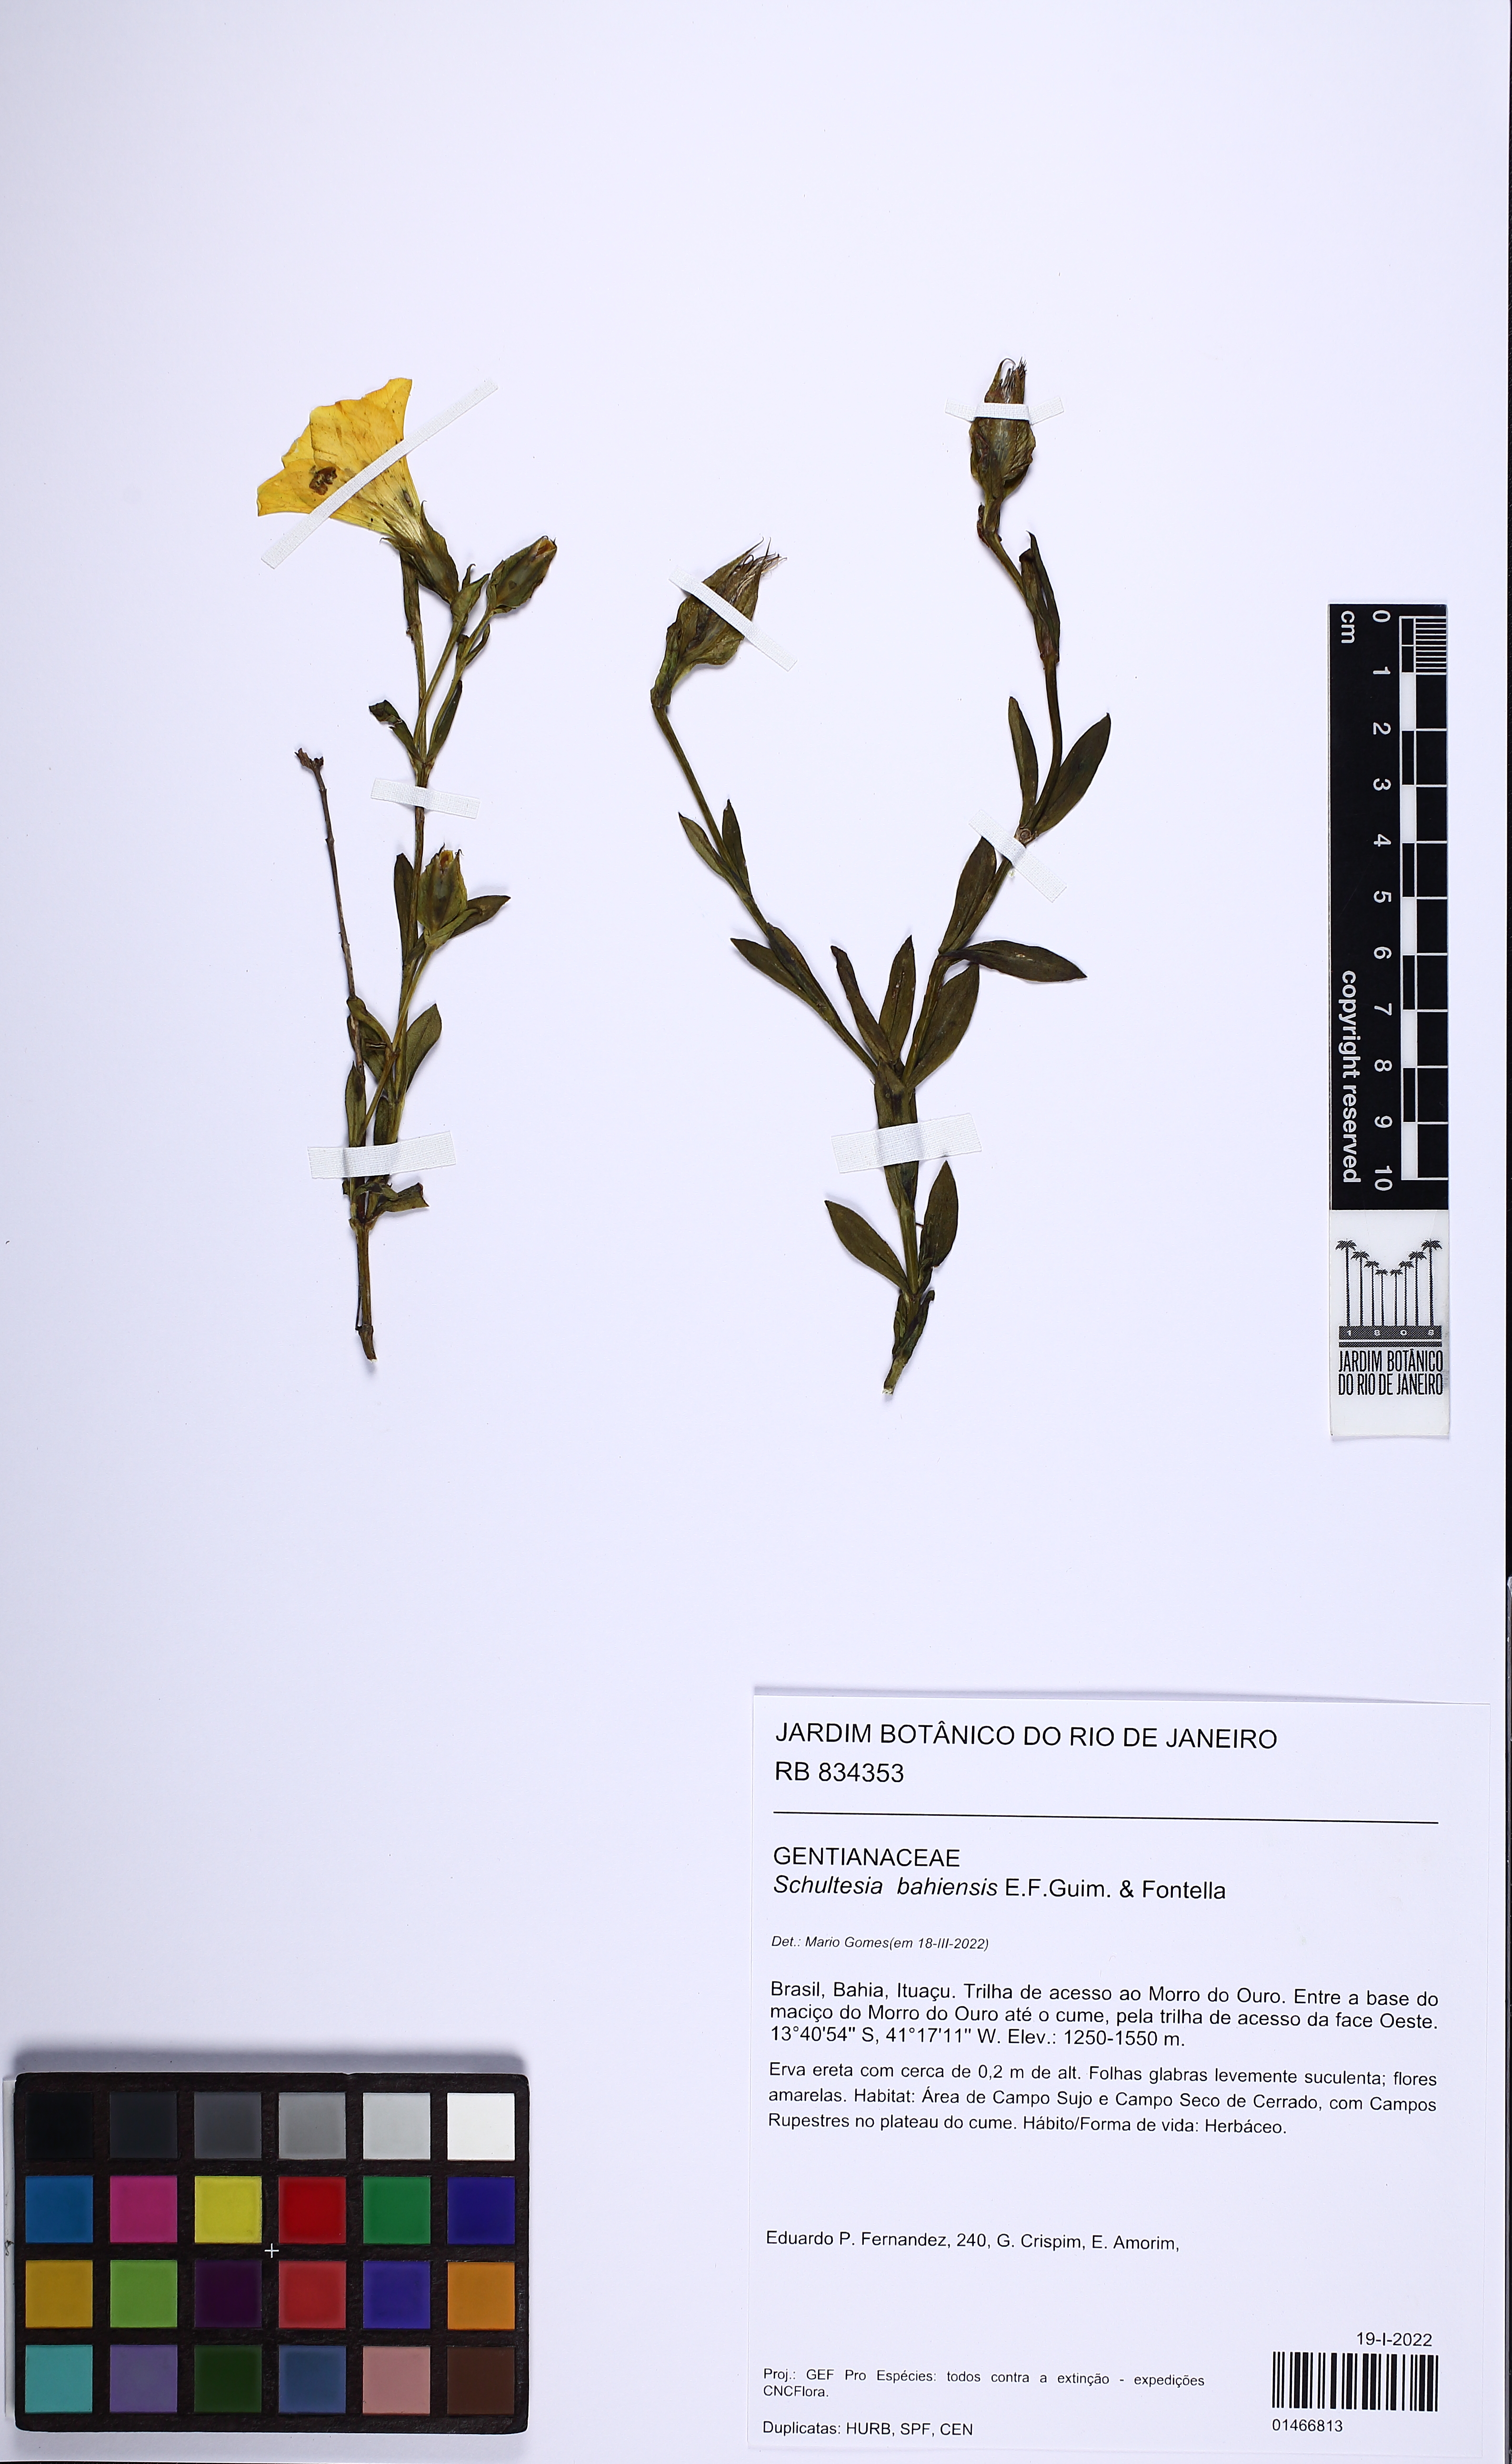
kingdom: Plantae
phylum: Tracheophyta
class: Magnoliopsida
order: Gentianales
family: Gentianaceae
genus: Schultesia
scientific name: Schultesia bahiensis
